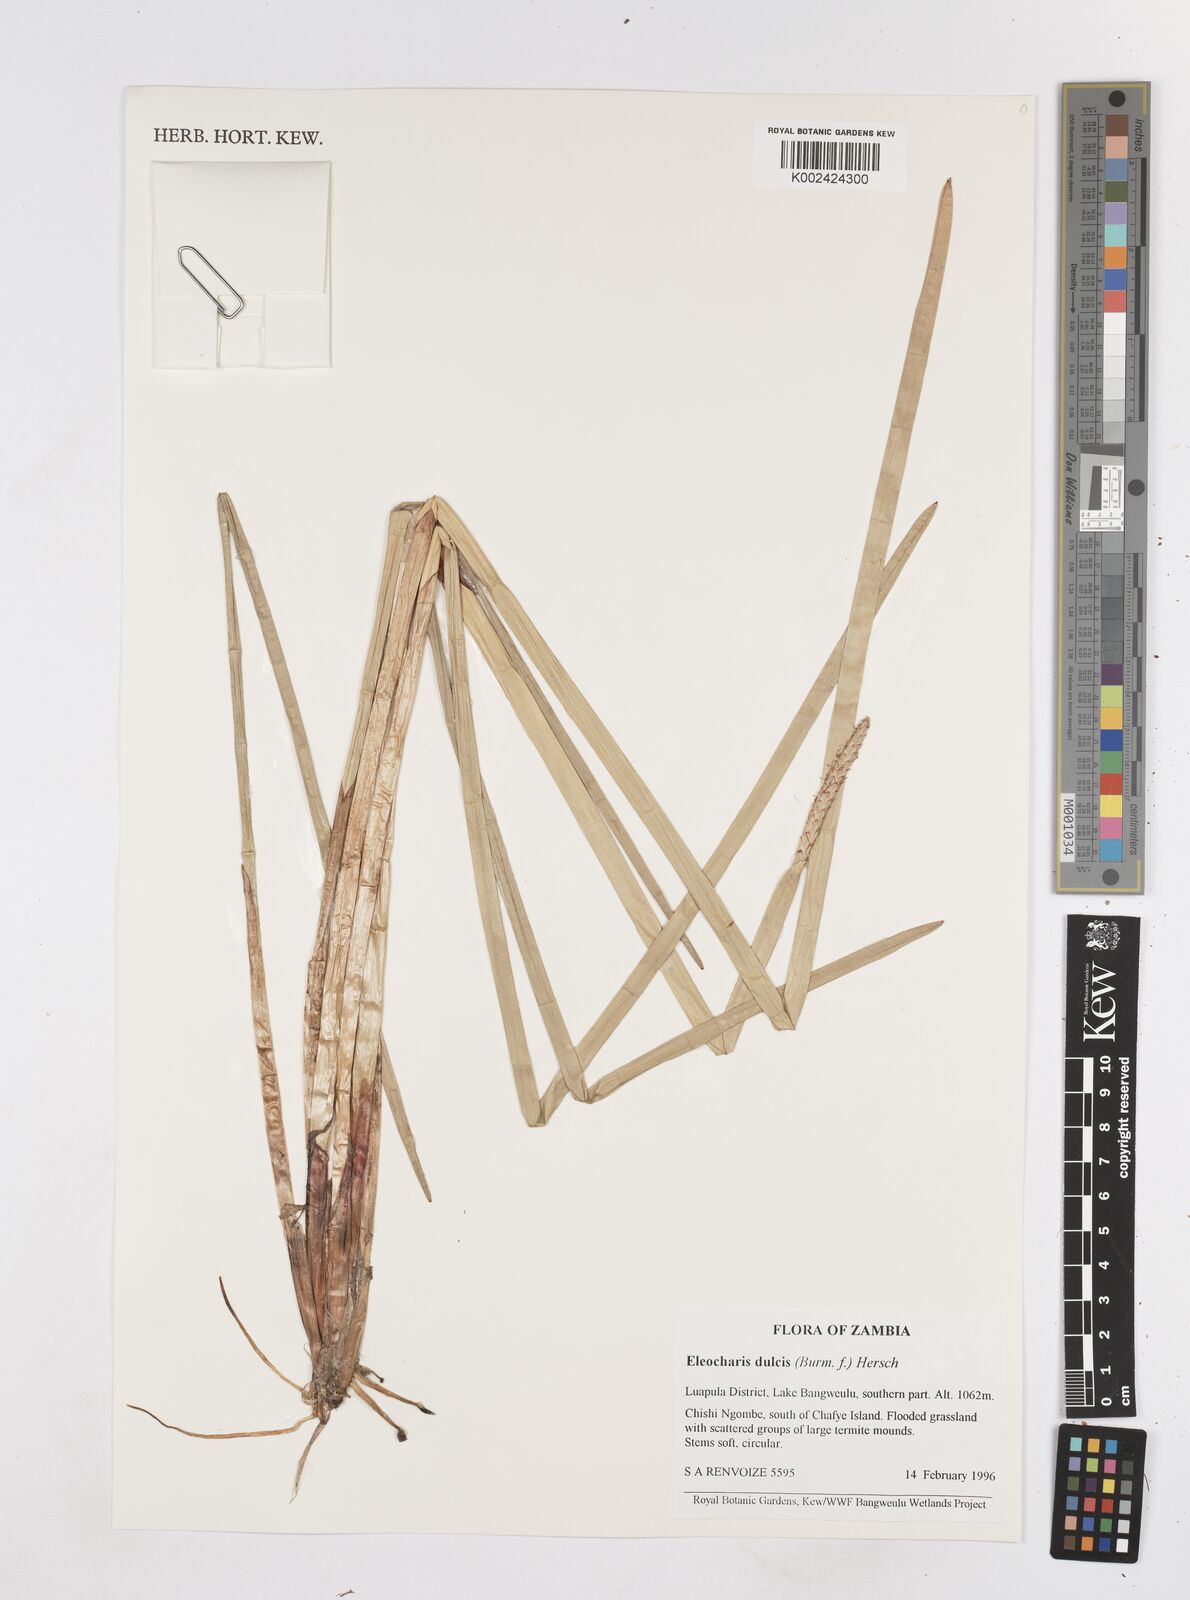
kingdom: Plantae
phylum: Tracheophyta
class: Liliopsida
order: Poales
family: Cyperaceae
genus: Eleocharis
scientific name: Eleocharis dulcis
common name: Chinese water chestnut
